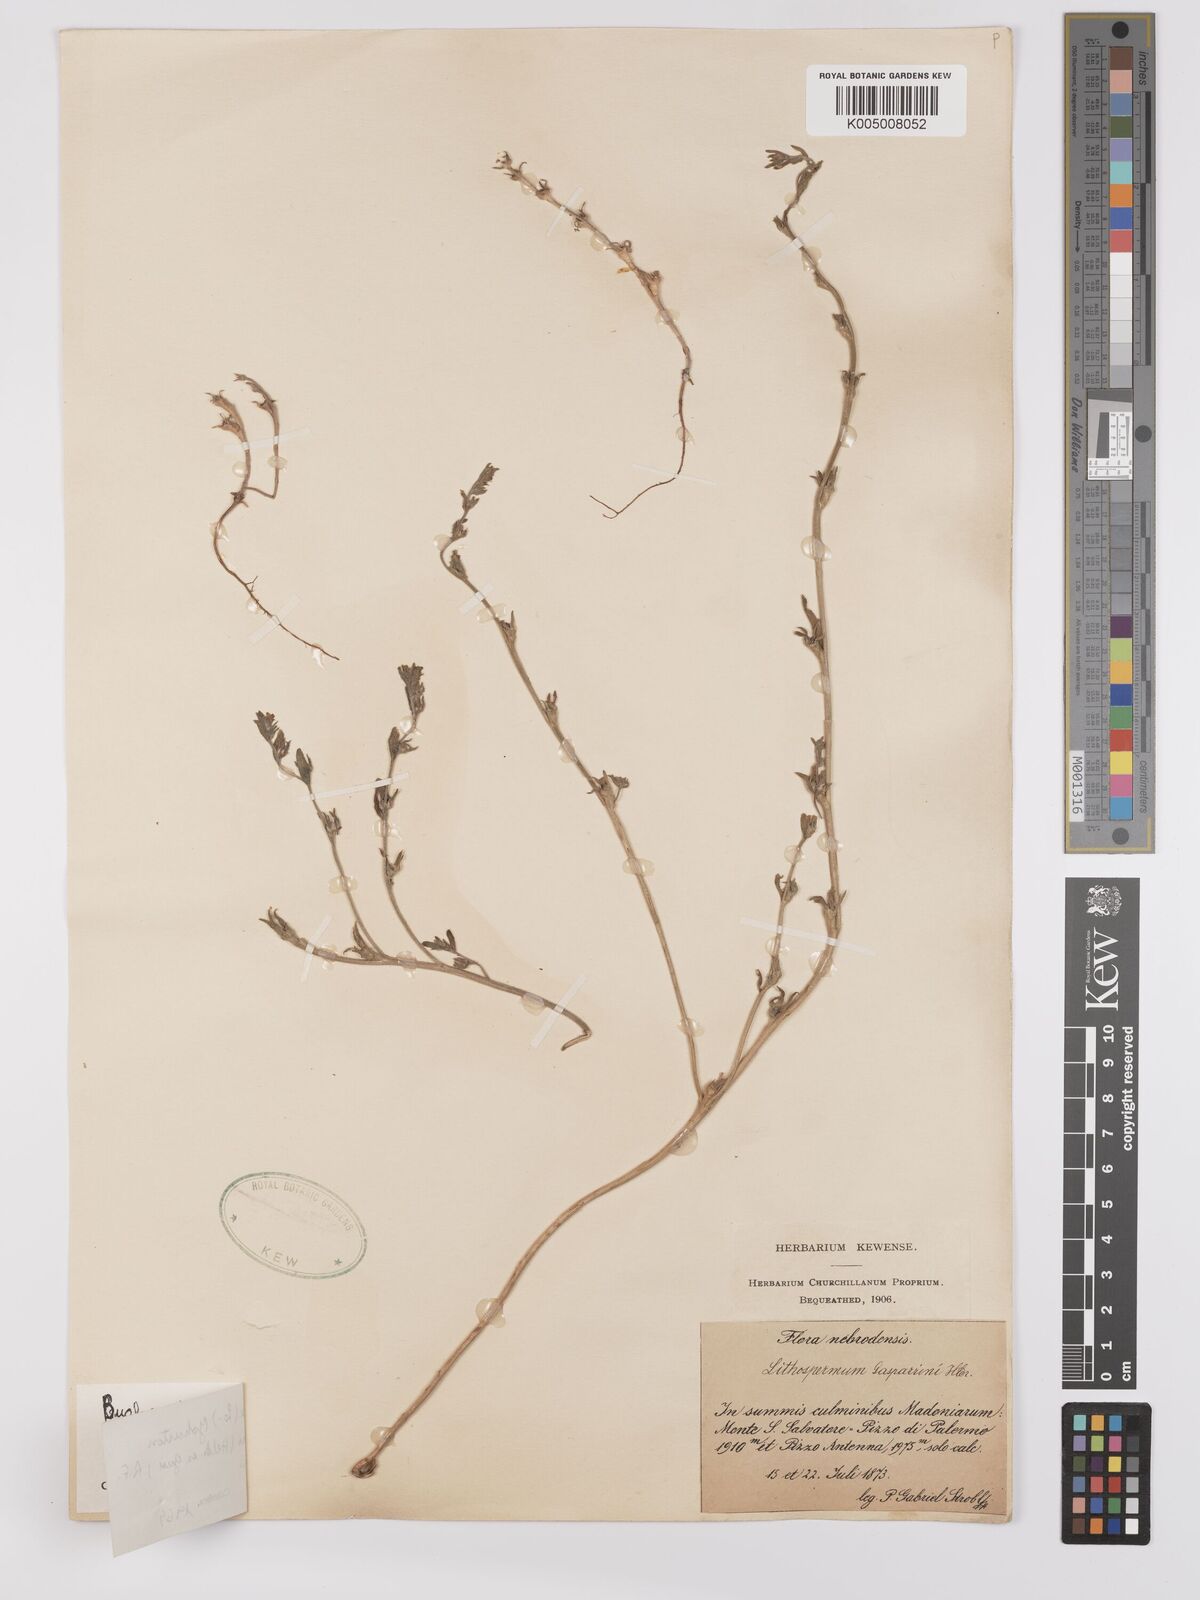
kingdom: Plantae
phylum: Tracheophyta
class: Magnoliopsida
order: Boraginales
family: Boraginaceae
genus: Buglossoides
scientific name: Buglossoides incrassata
